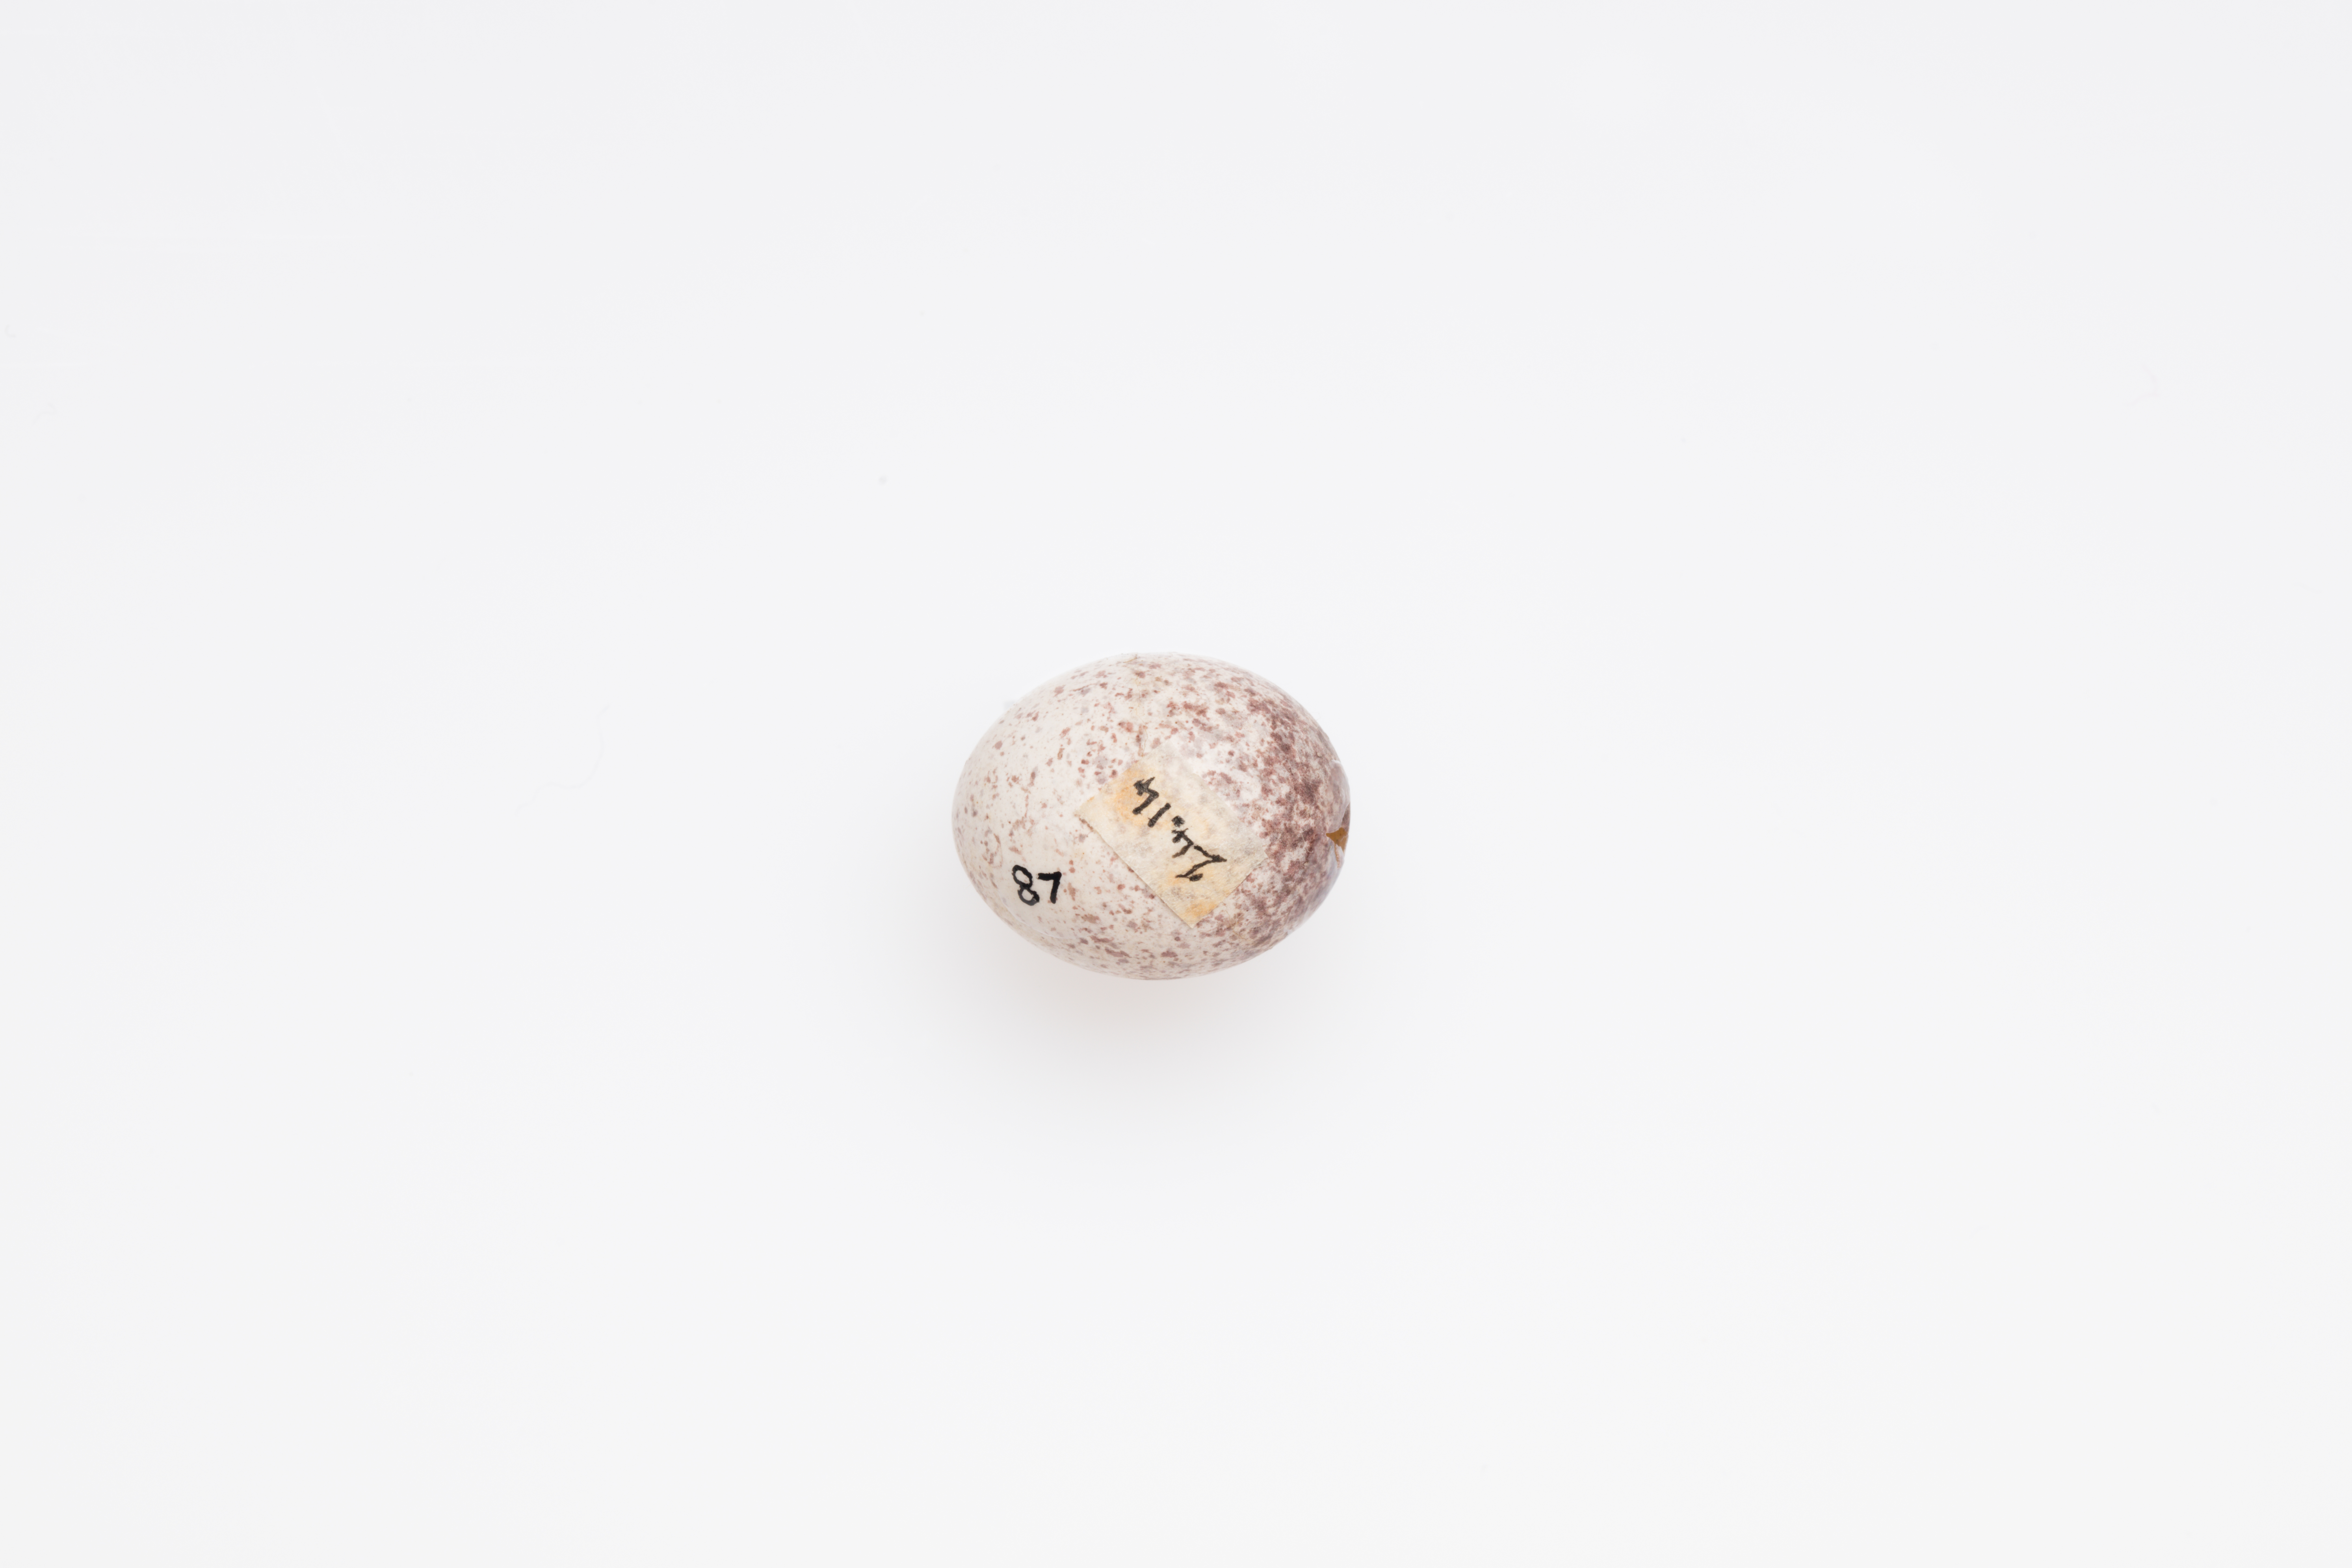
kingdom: Animalia
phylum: Chordata
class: Aves
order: Passeriformes
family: Locustellidae
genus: Megalurus
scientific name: Megalurus punctatus
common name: New zealand fernbird
